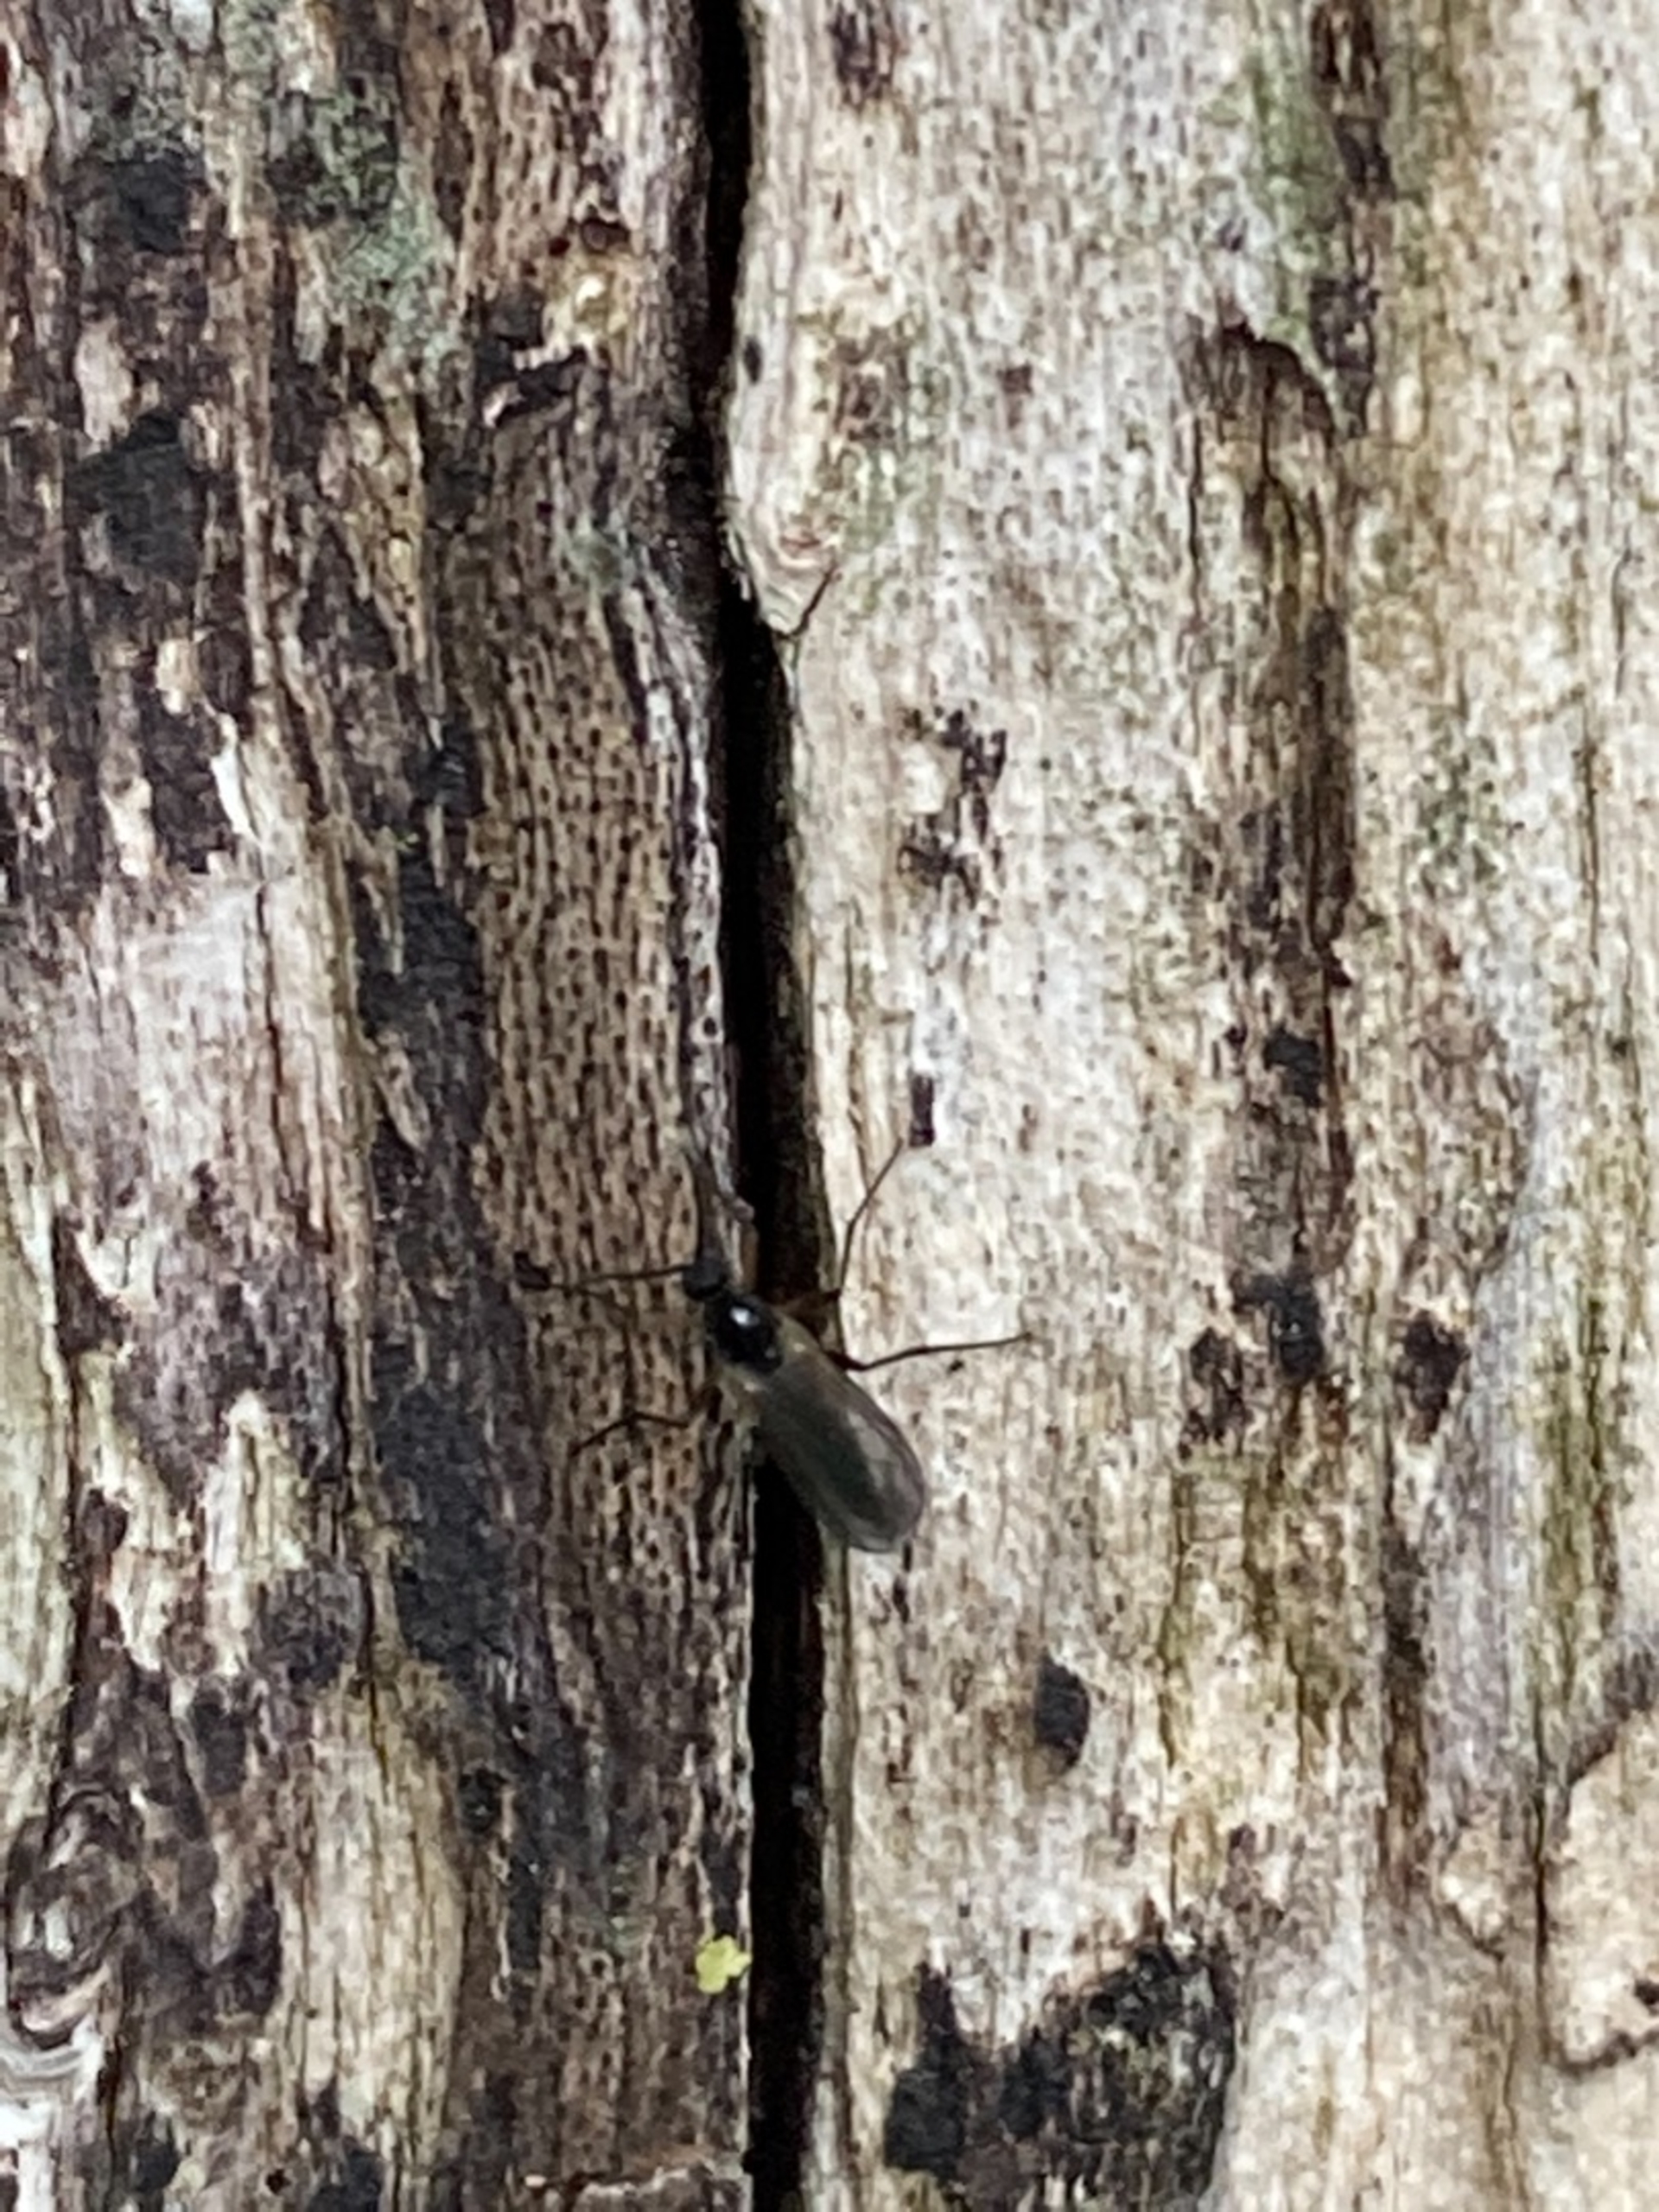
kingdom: Animalia
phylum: Arthropoda
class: Insecta
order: Diptera
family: Bibionidae
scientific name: Bibionidae
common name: Hårmyg
